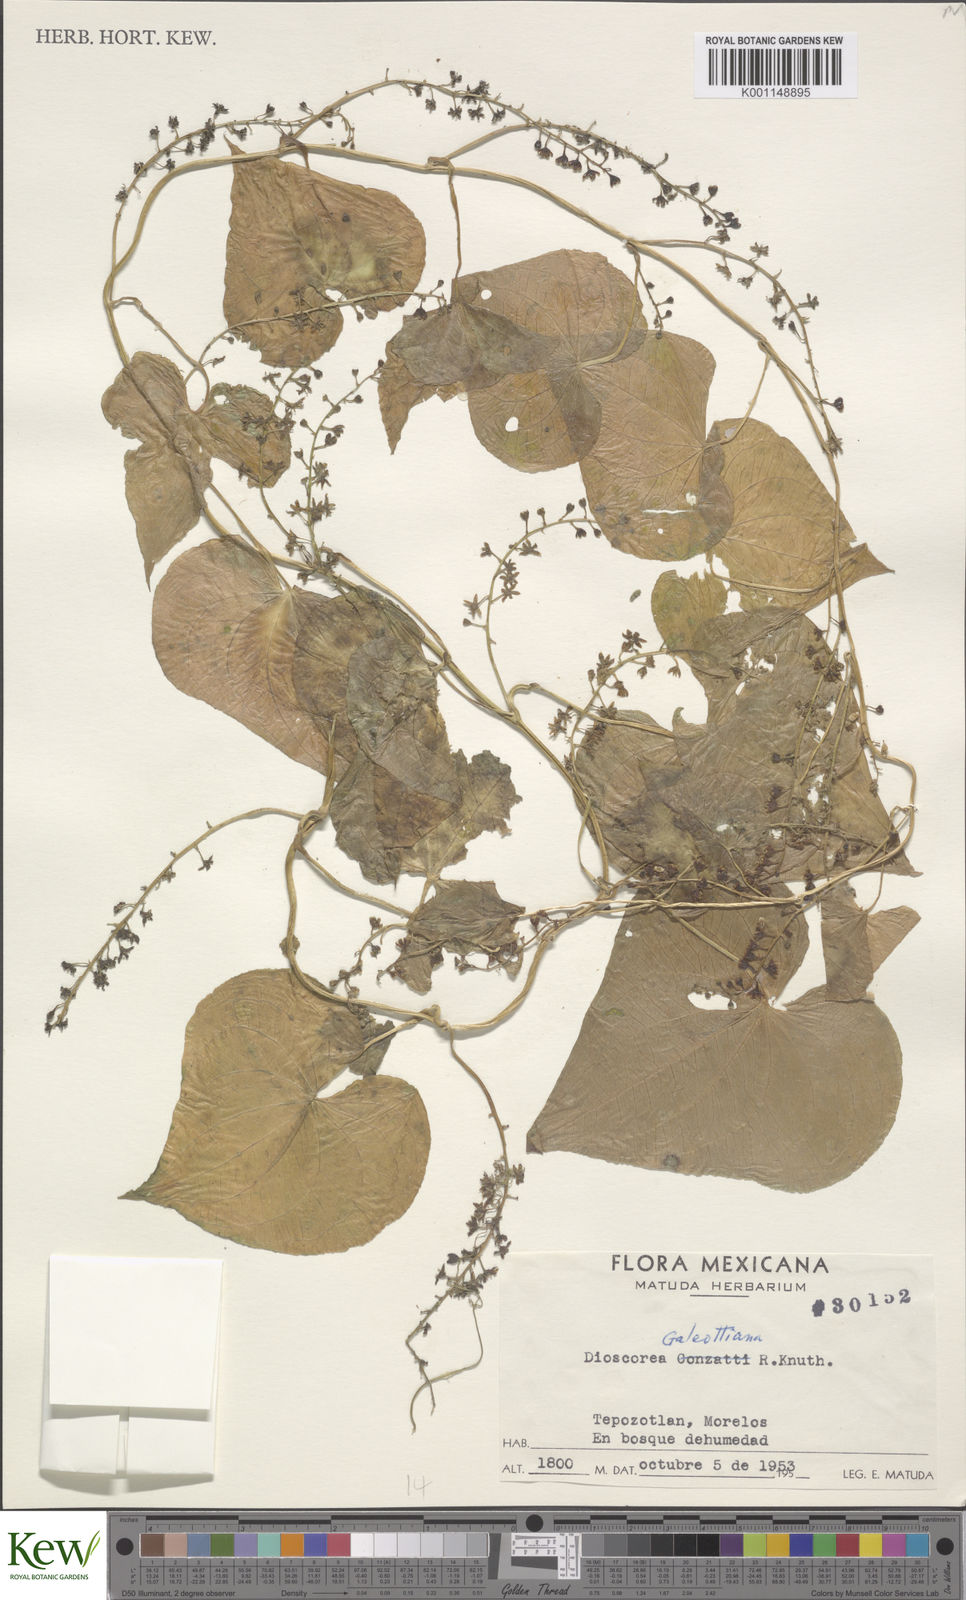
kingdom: Plantae
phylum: Tracheophyta
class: Liliopsida
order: Dioscoreales
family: Dioscoreaceae
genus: Dioscorea
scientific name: Dioscorea galeottiana
